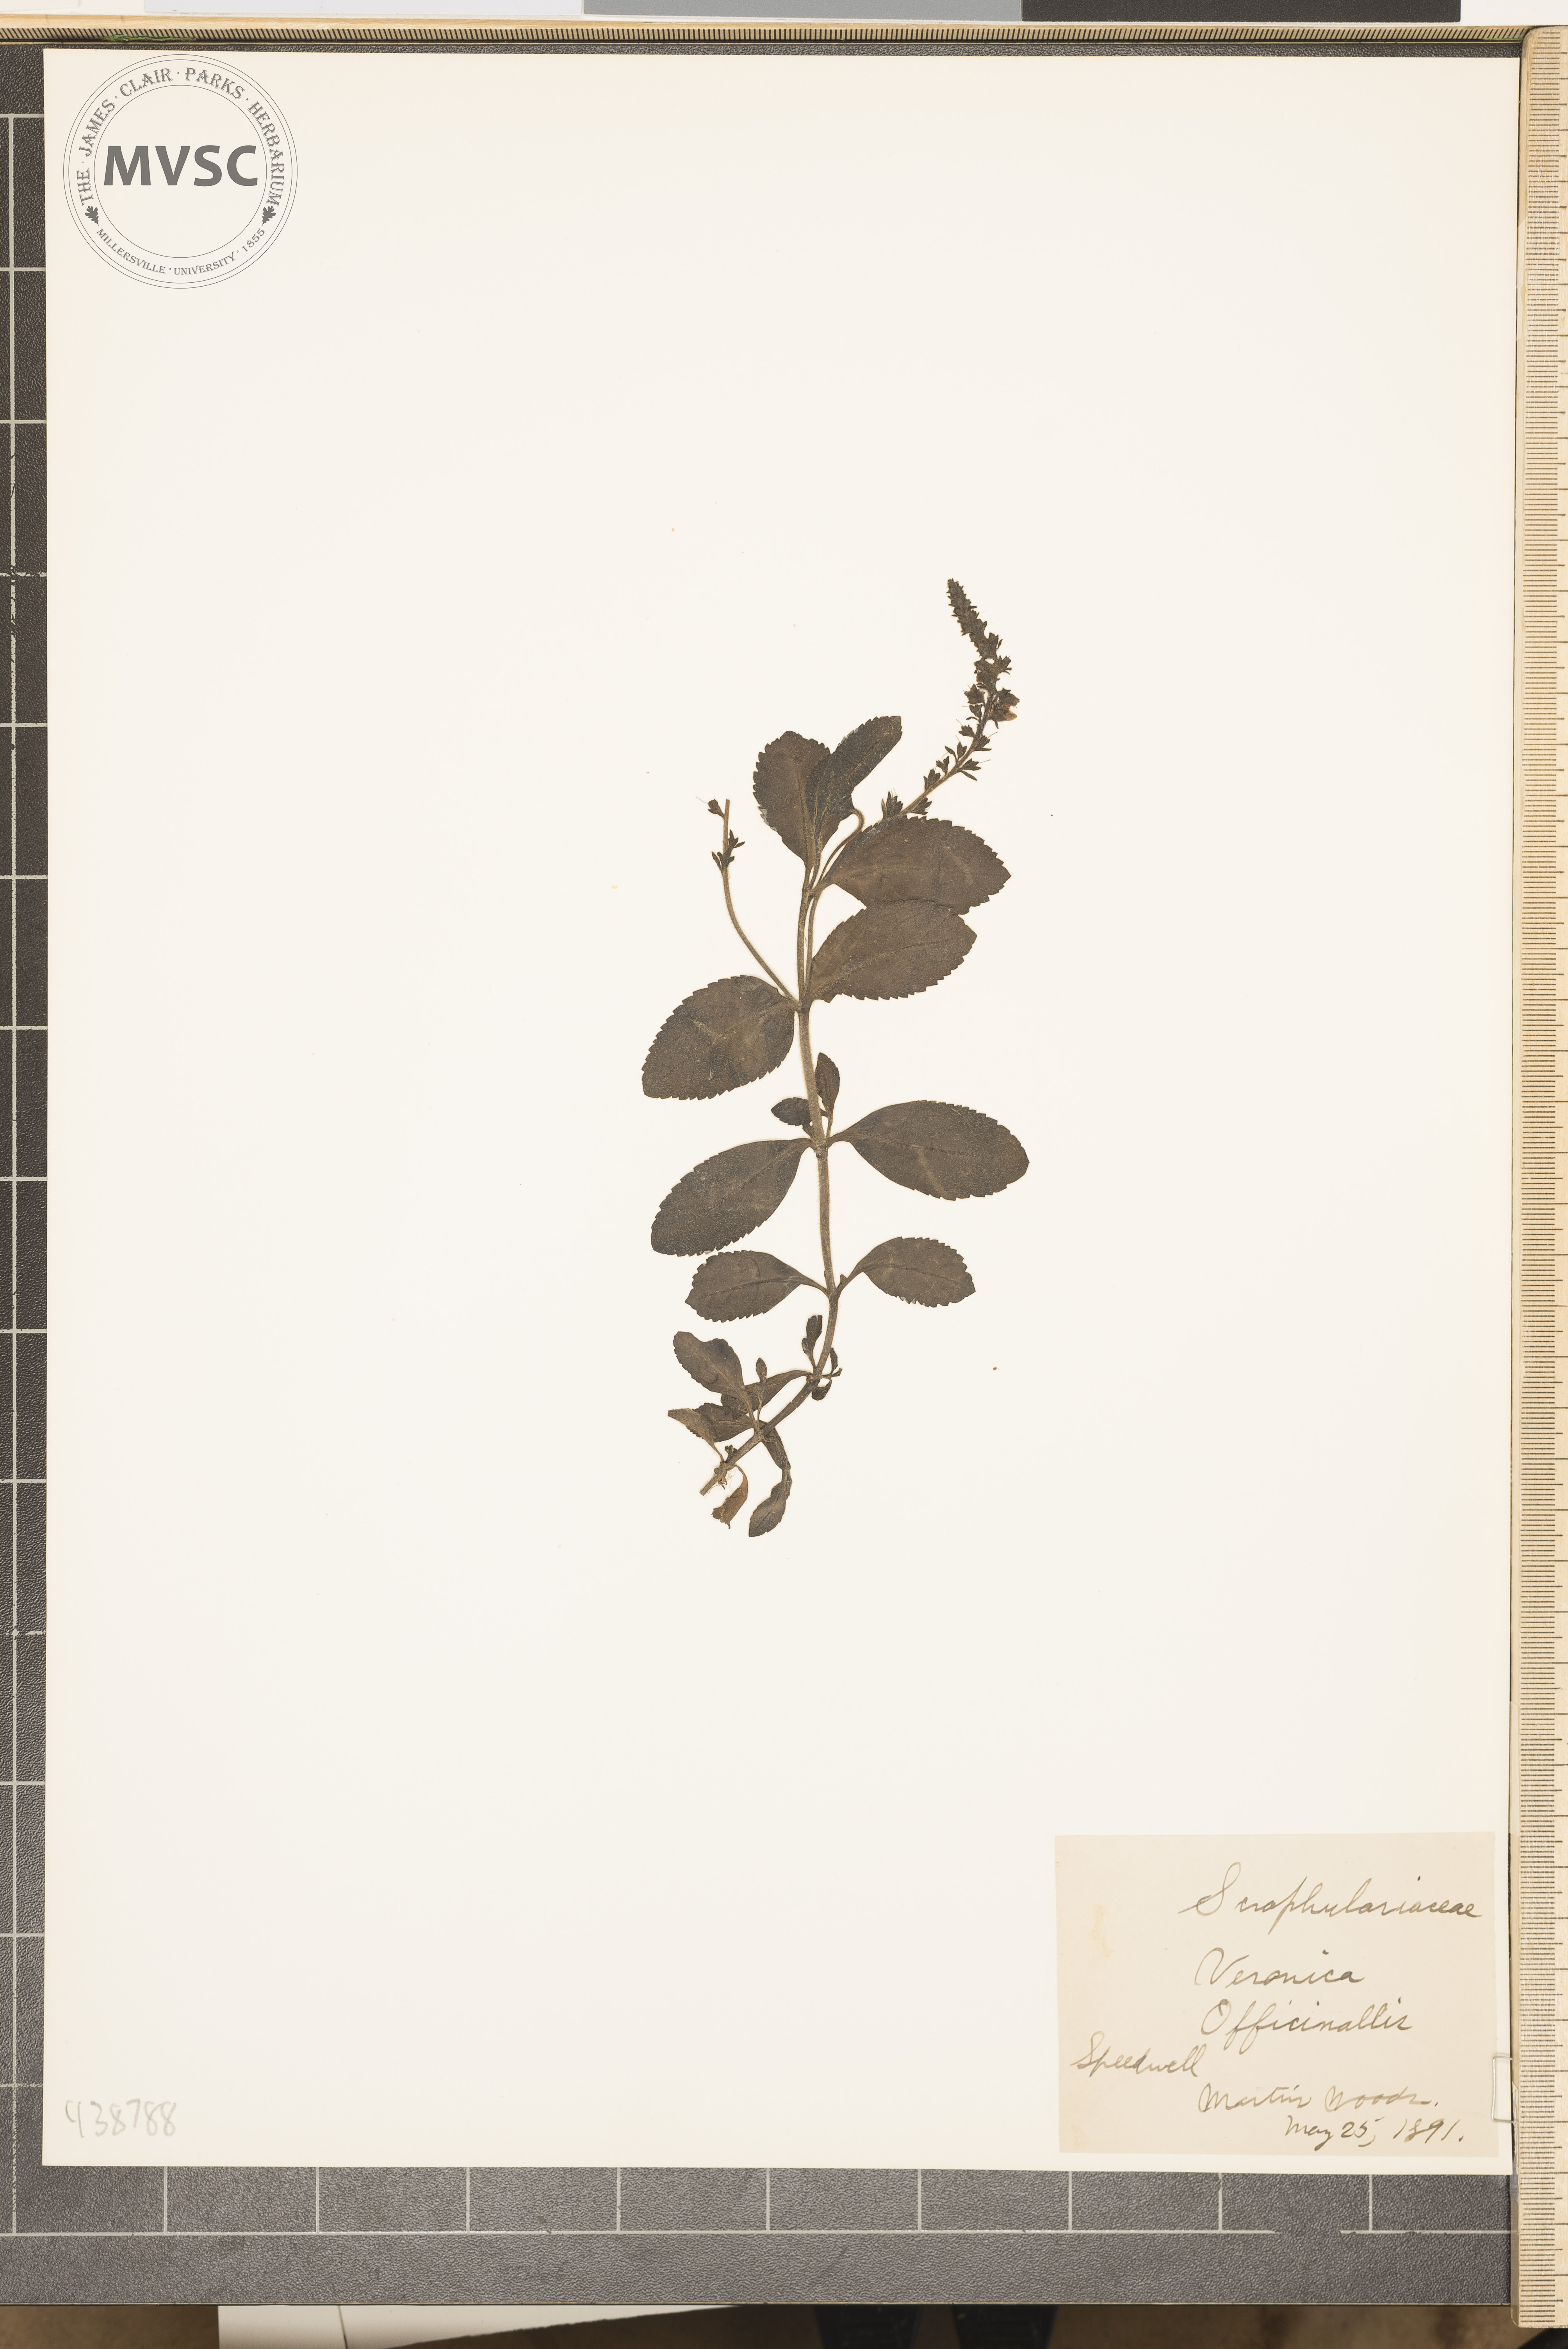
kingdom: Plantae
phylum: Tracheophyta
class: Magnoliopsida
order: Lamiales
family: Plantaginaceae
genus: Veronica
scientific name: Veronica officinalis
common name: Speedwell
